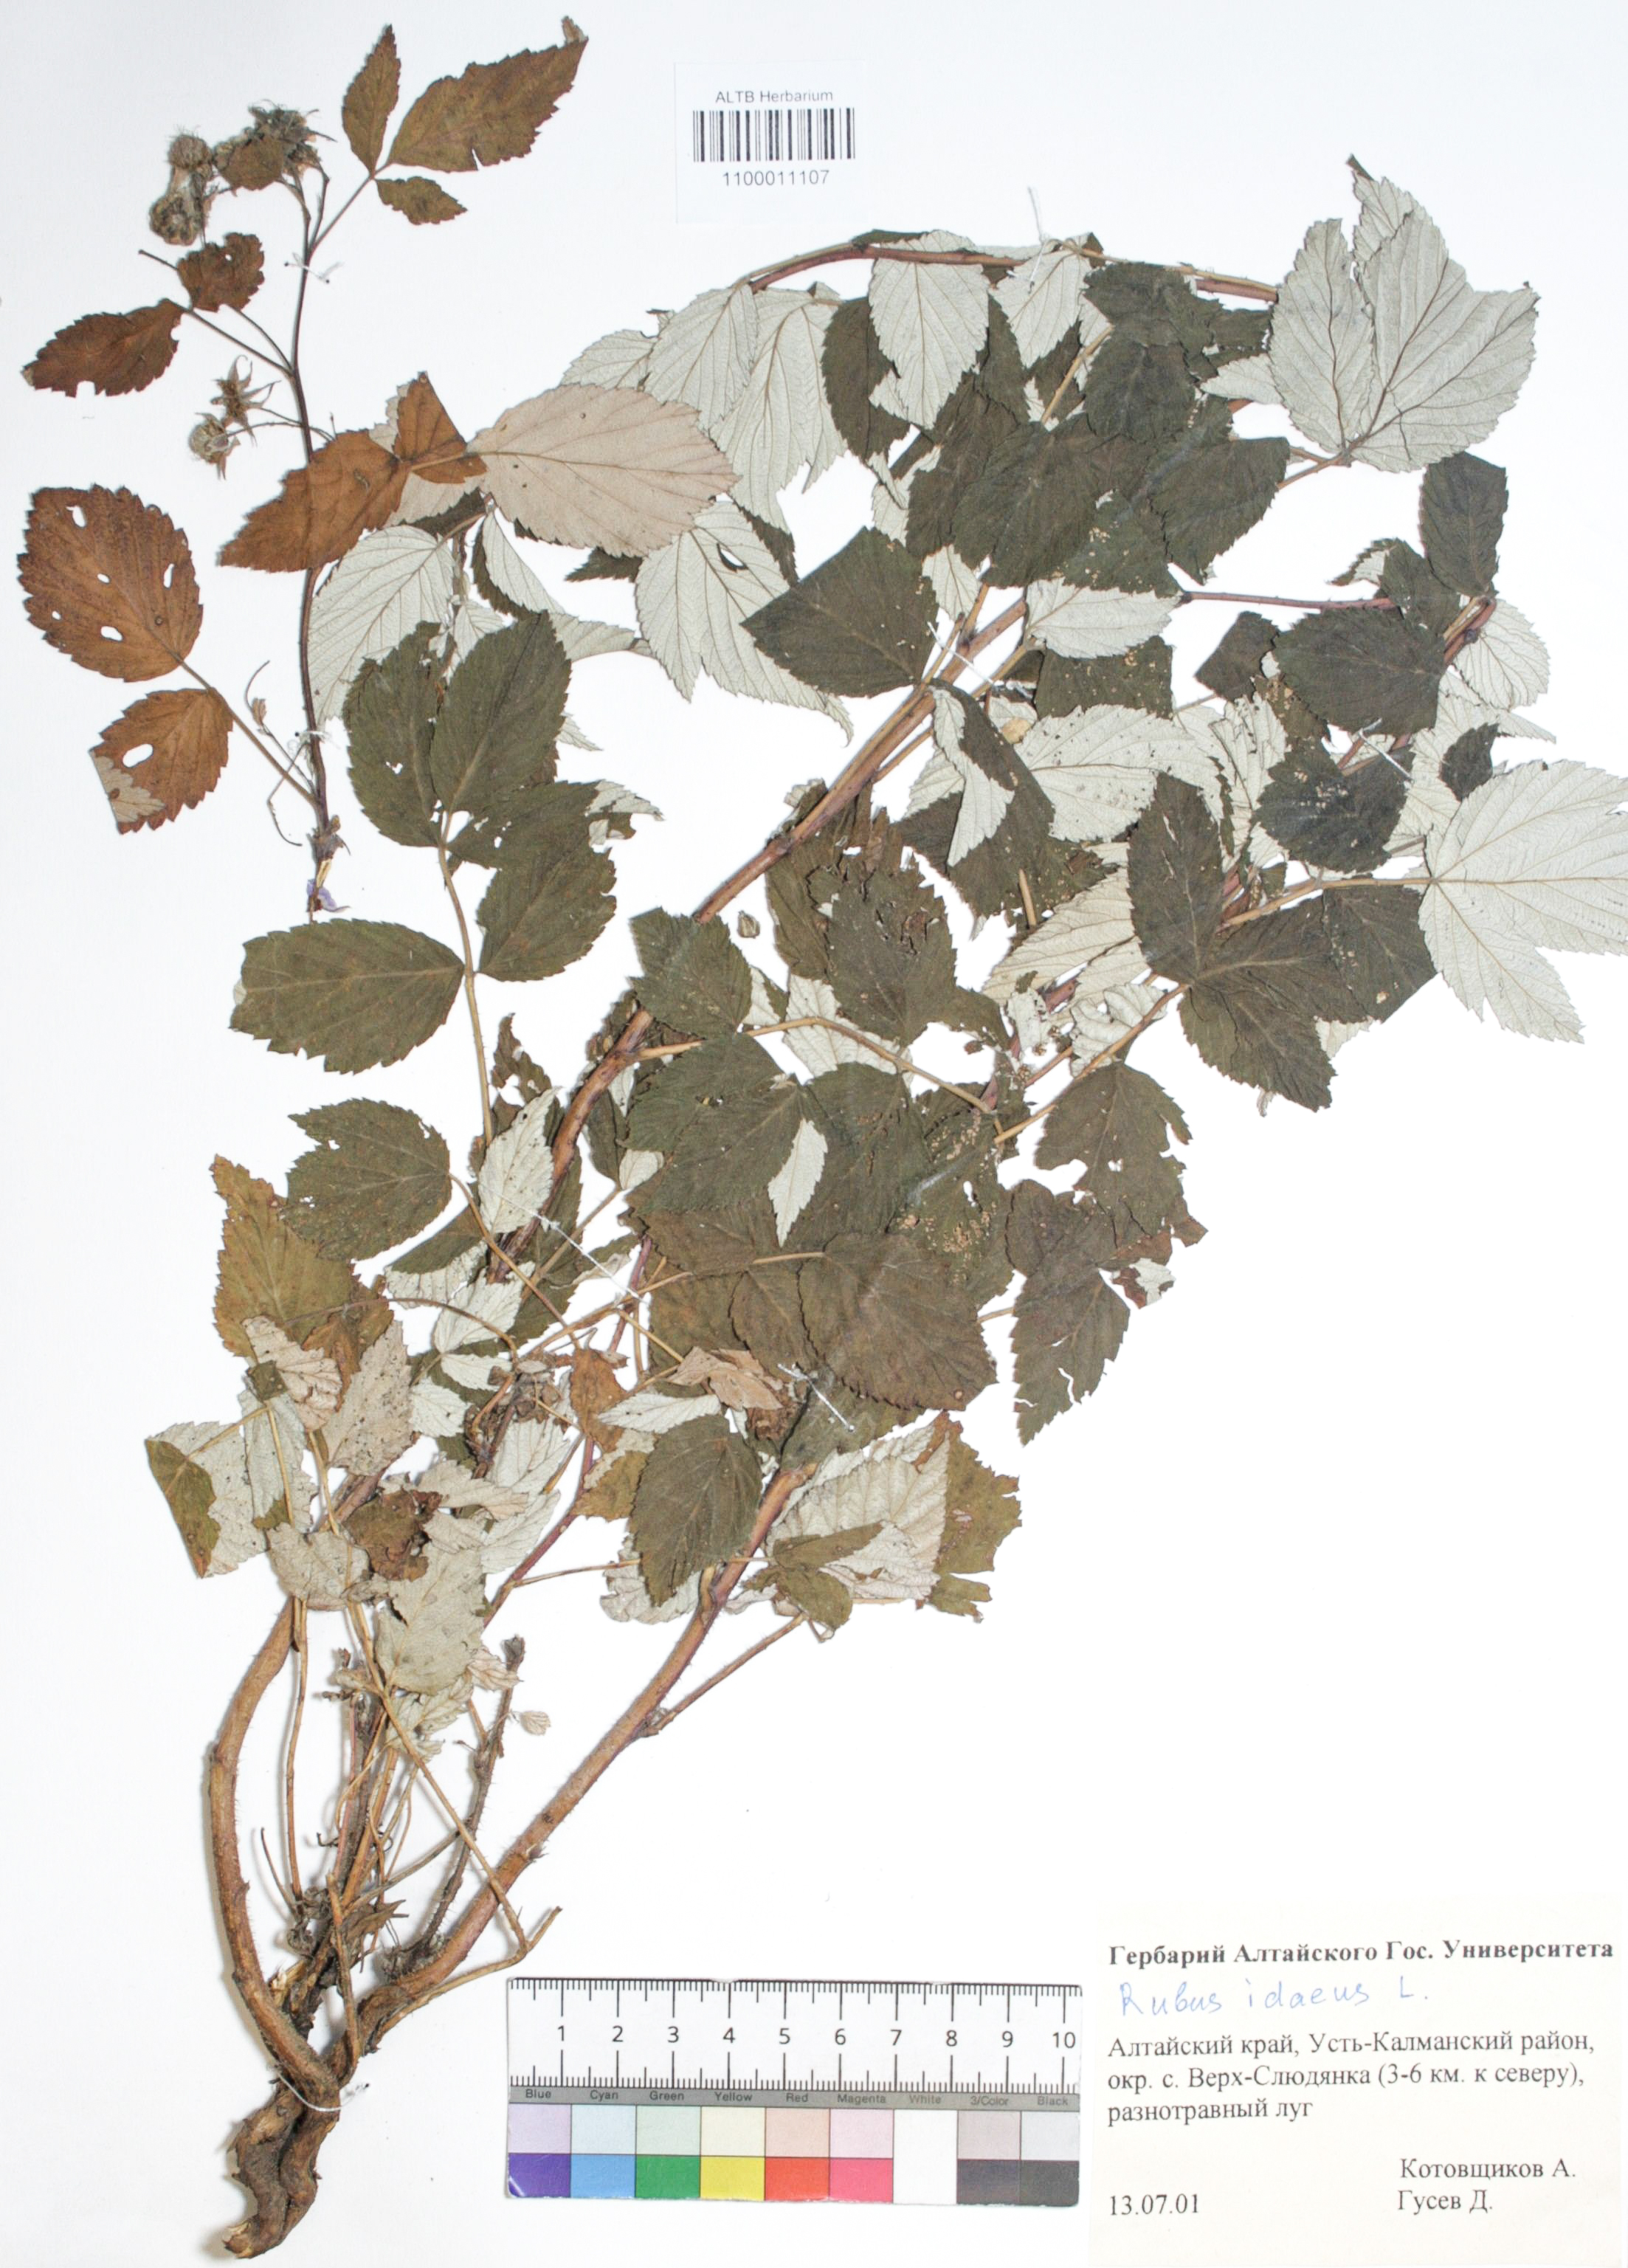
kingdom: Plantae
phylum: Tracheophyta
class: Magnoliopsida
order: Rosales
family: Rosaceae
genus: Rubus
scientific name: Rubus idaeus
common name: Raspberry
